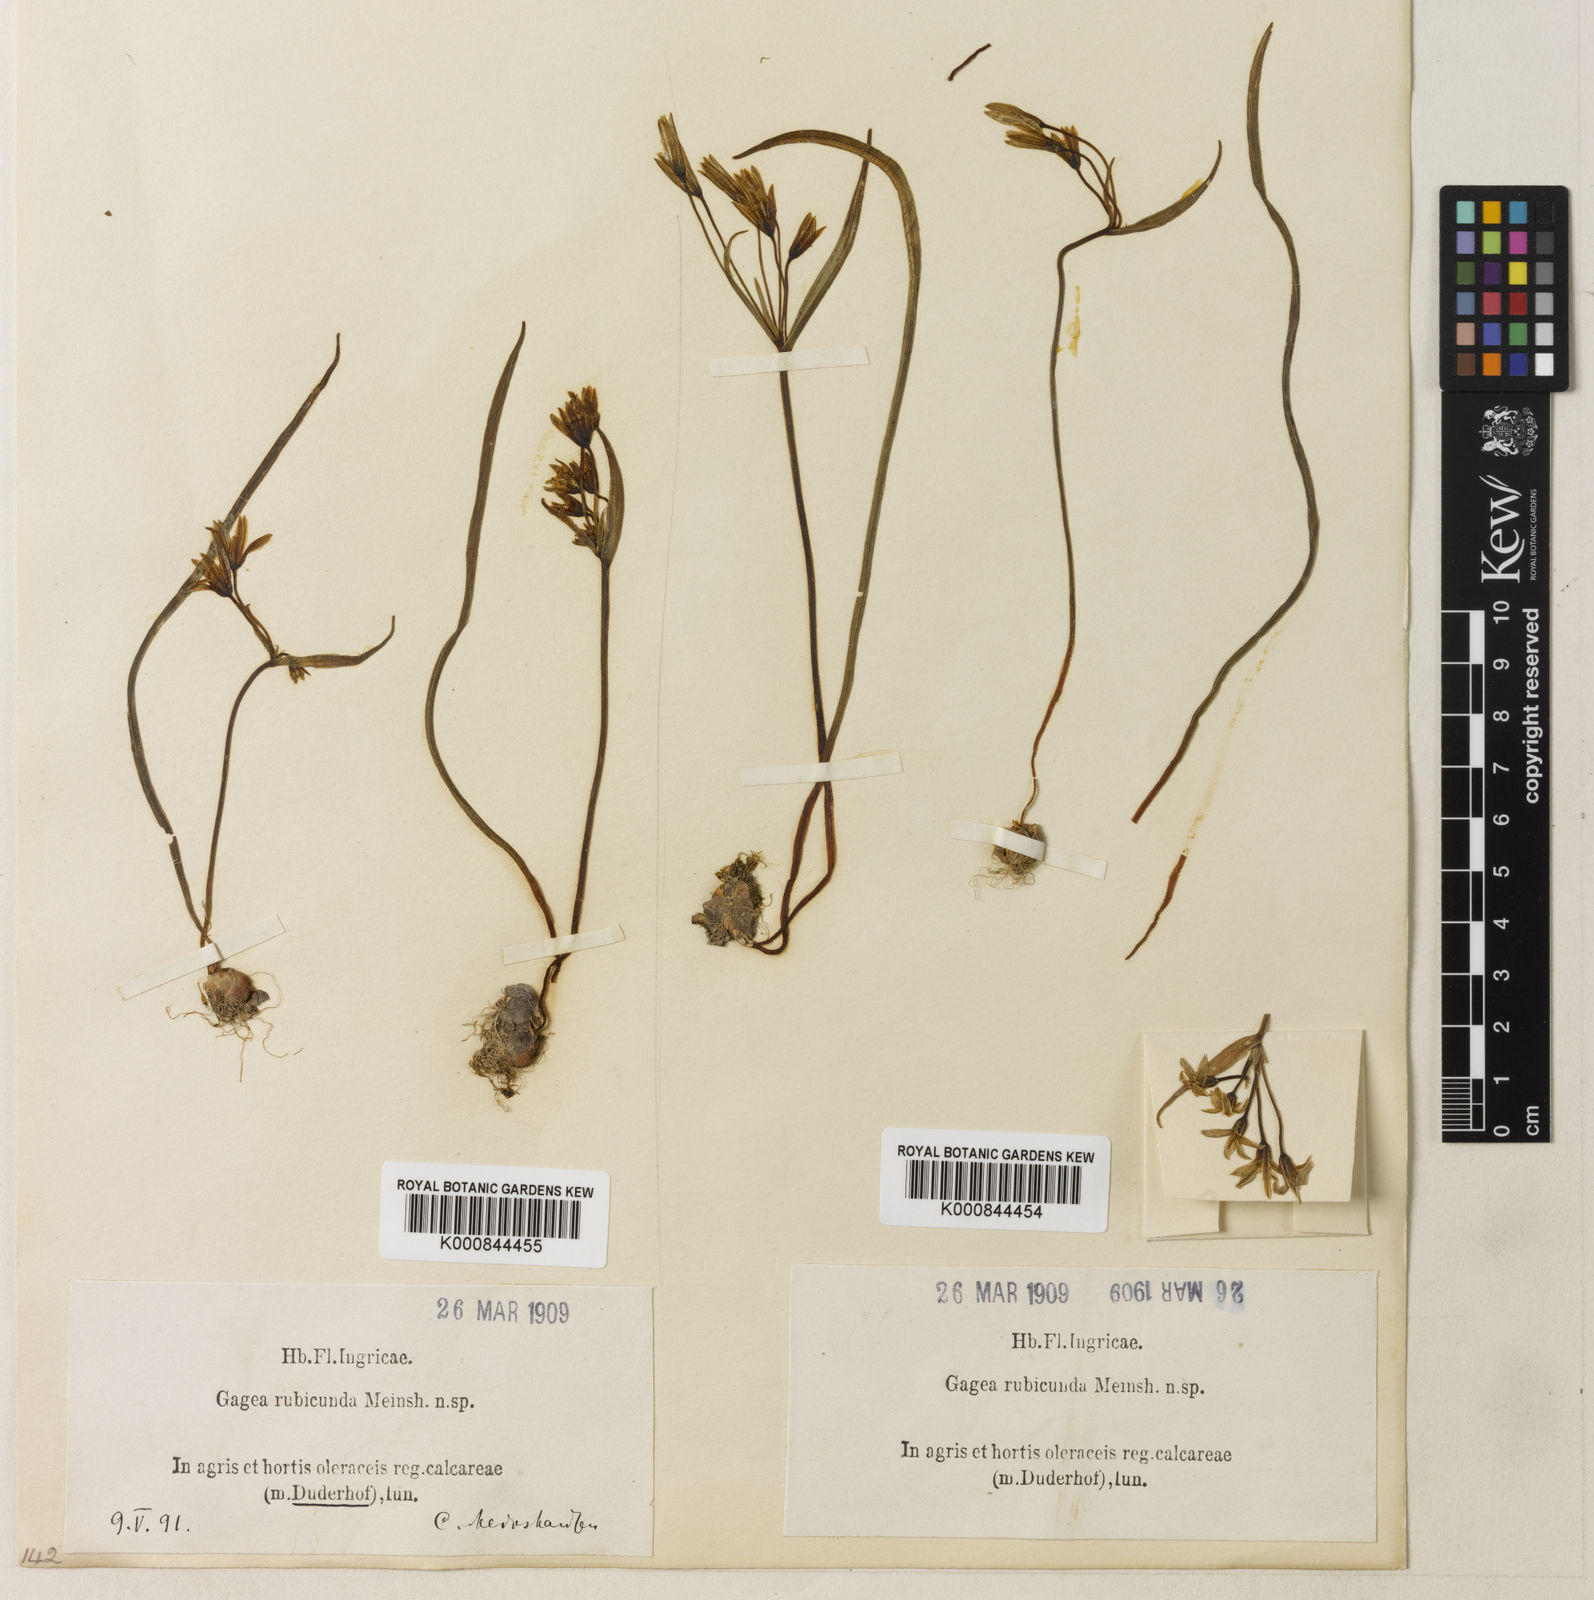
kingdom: Plantae
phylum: Tracheophyta
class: Liliopsida
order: Liliales
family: Liliaceae
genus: Gagea
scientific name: Gagea fragifera
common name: Lily
